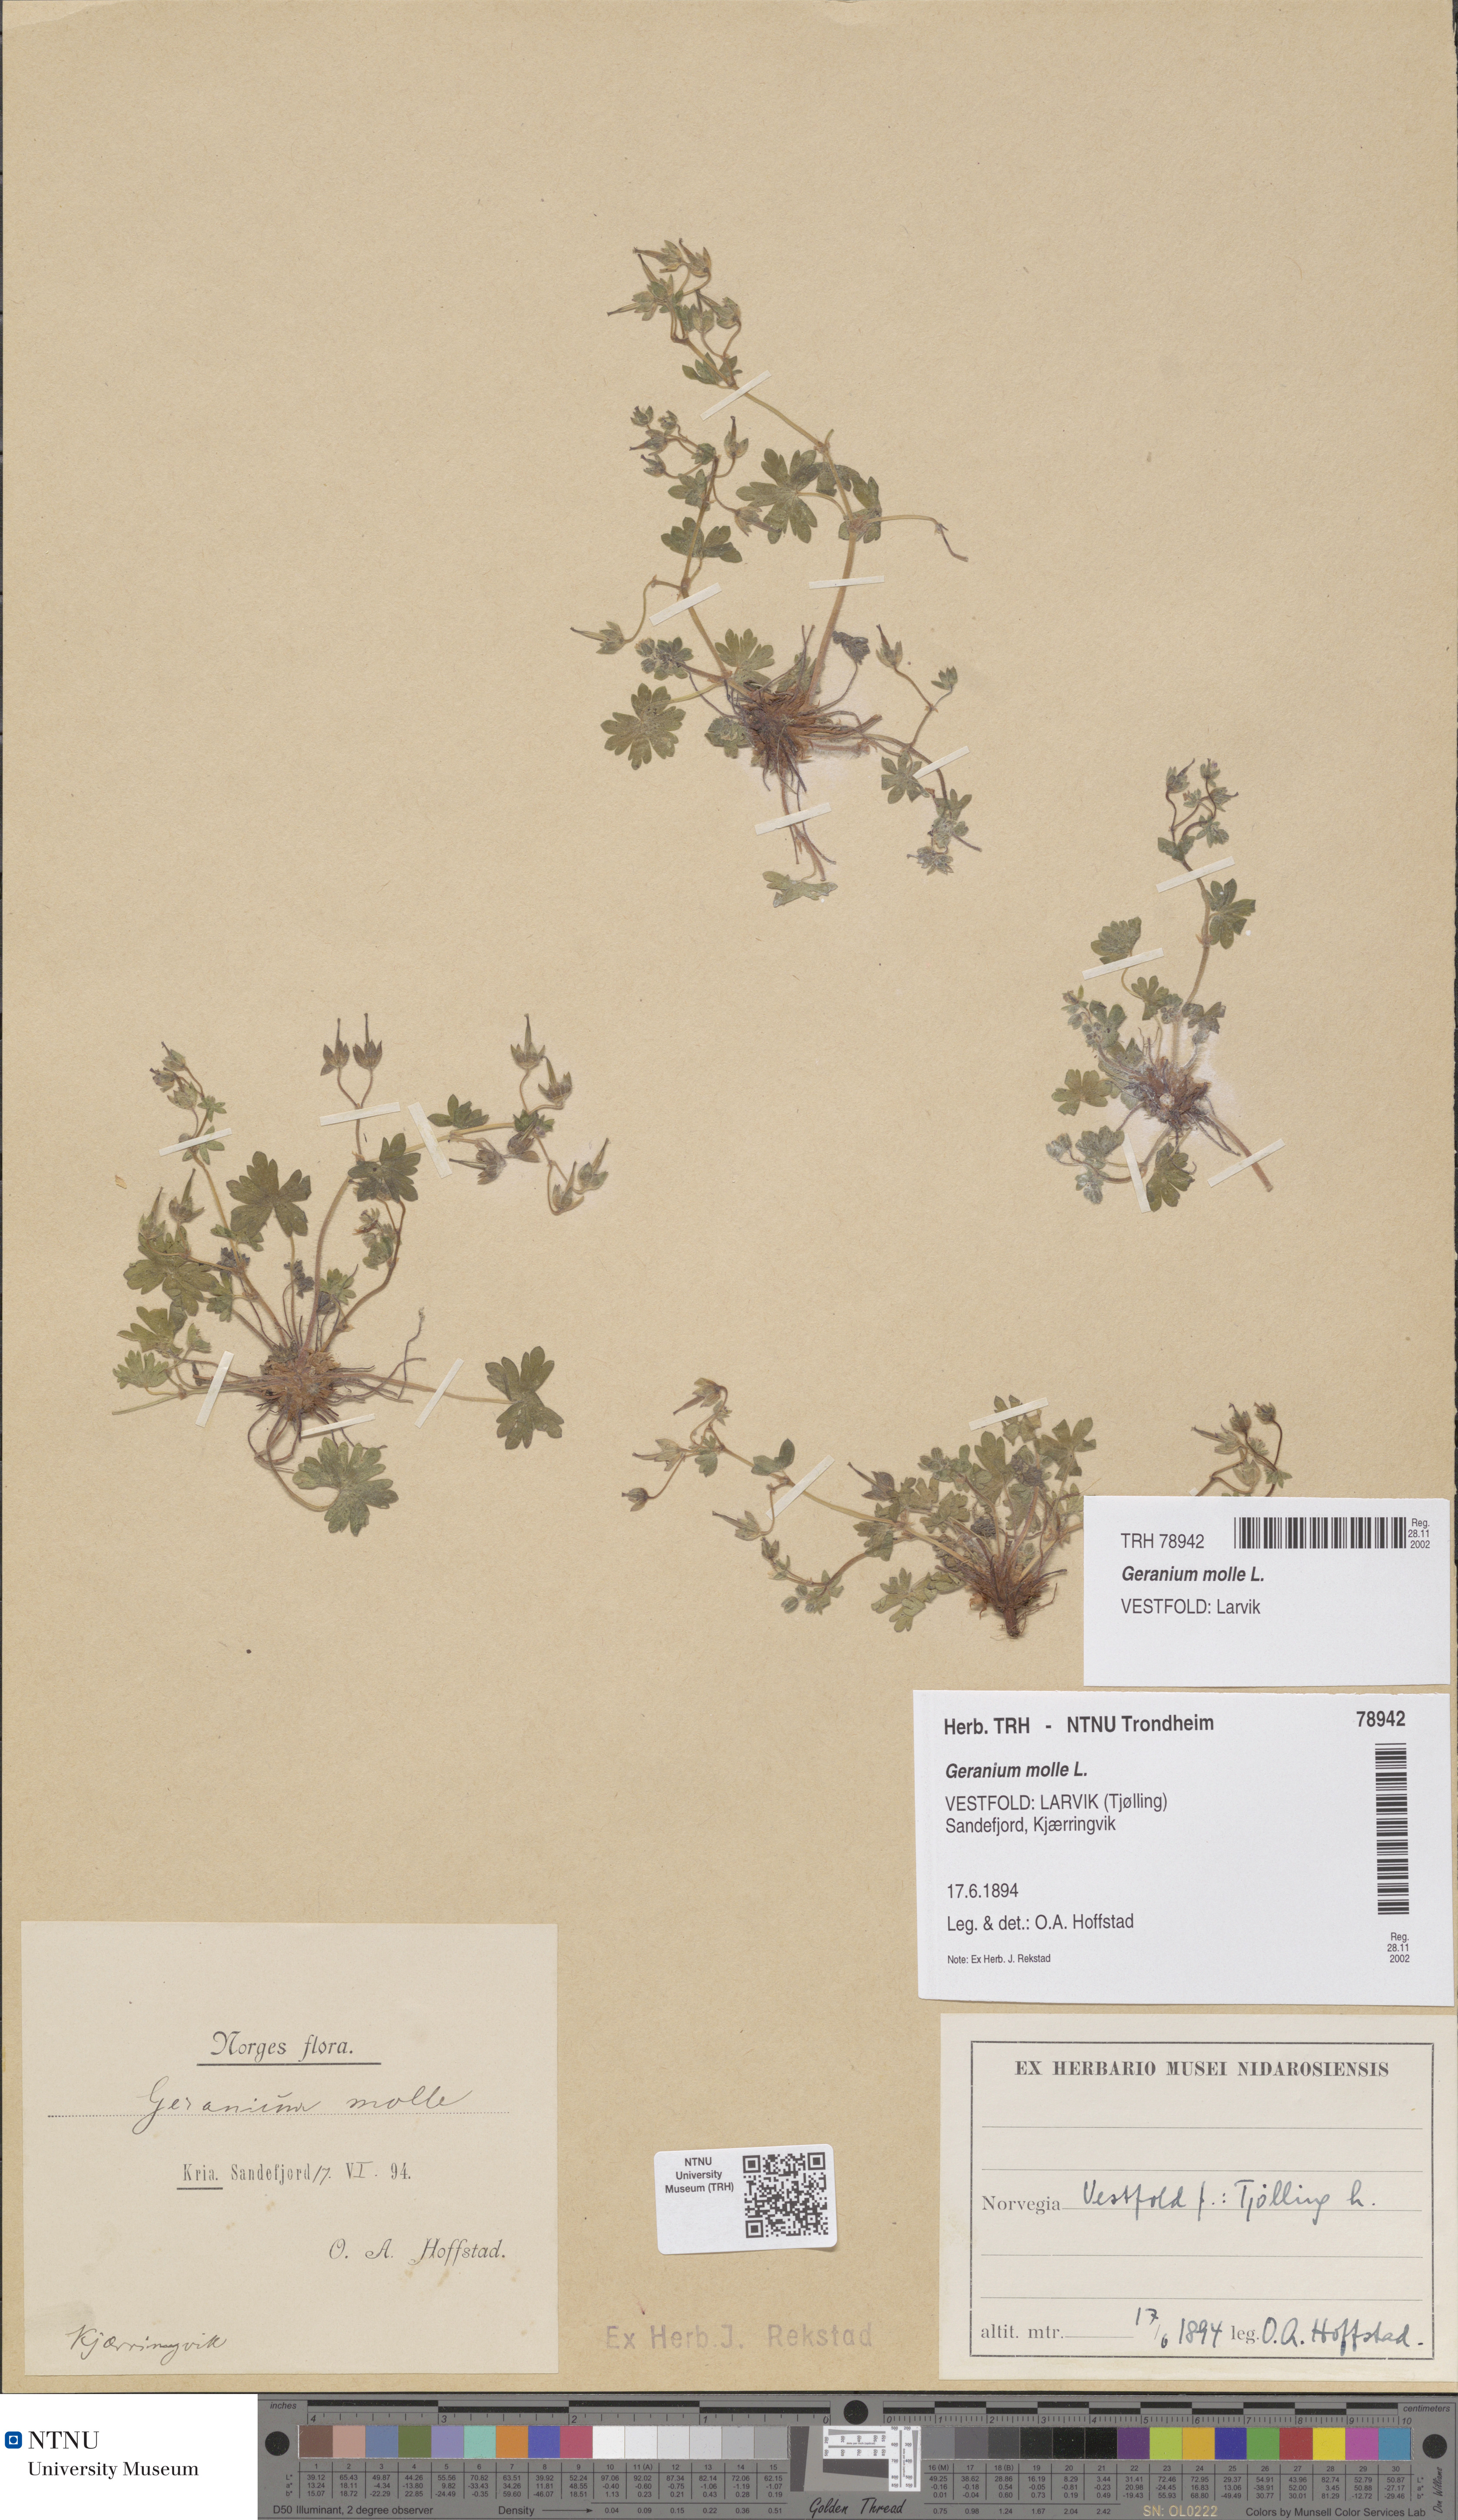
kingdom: Plantae
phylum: Tracheophyta
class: Magnoliopsida
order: Geraniales
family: Geraniaceae
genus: Geranium
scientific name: Geranium molle
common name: Dove's-foot crane's-bill
